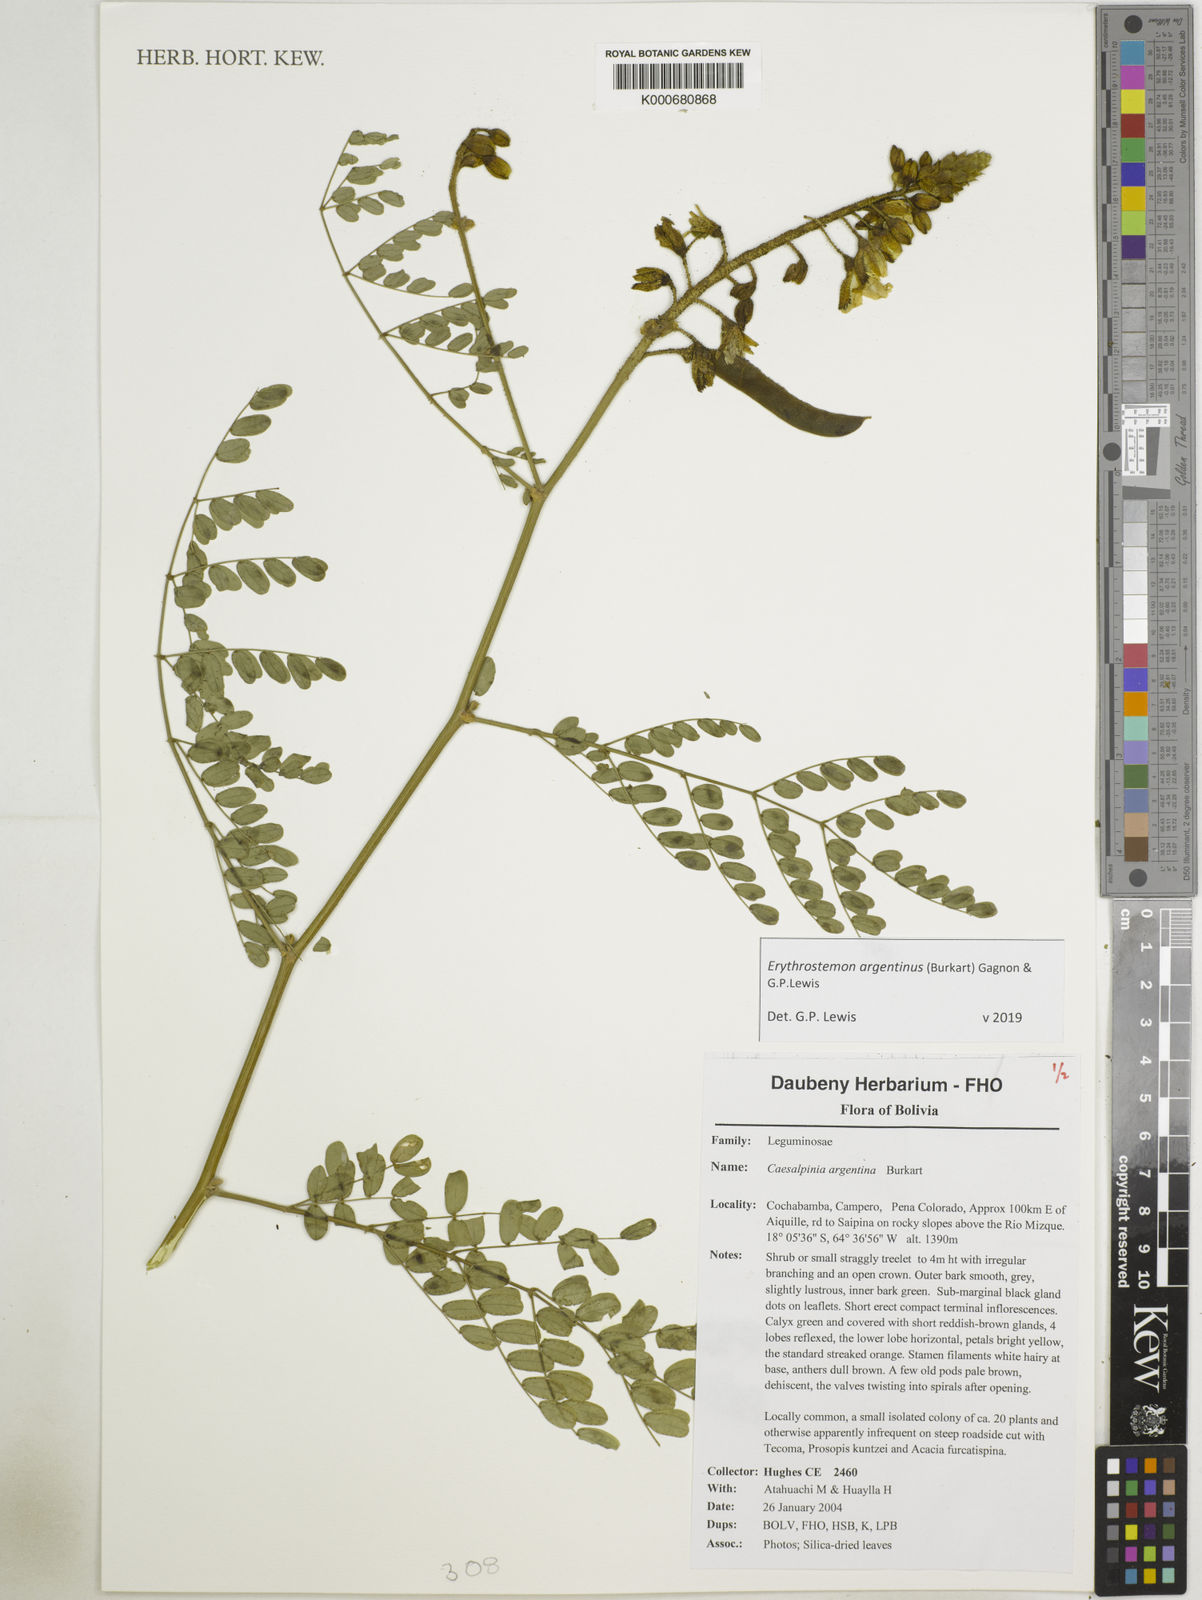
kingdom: Plantae
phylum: Tracheophyta
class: Magnoliopsida
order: Fabales
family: Fabaceae
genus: Erythrostemon
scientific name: Erythrostemon argentinus
